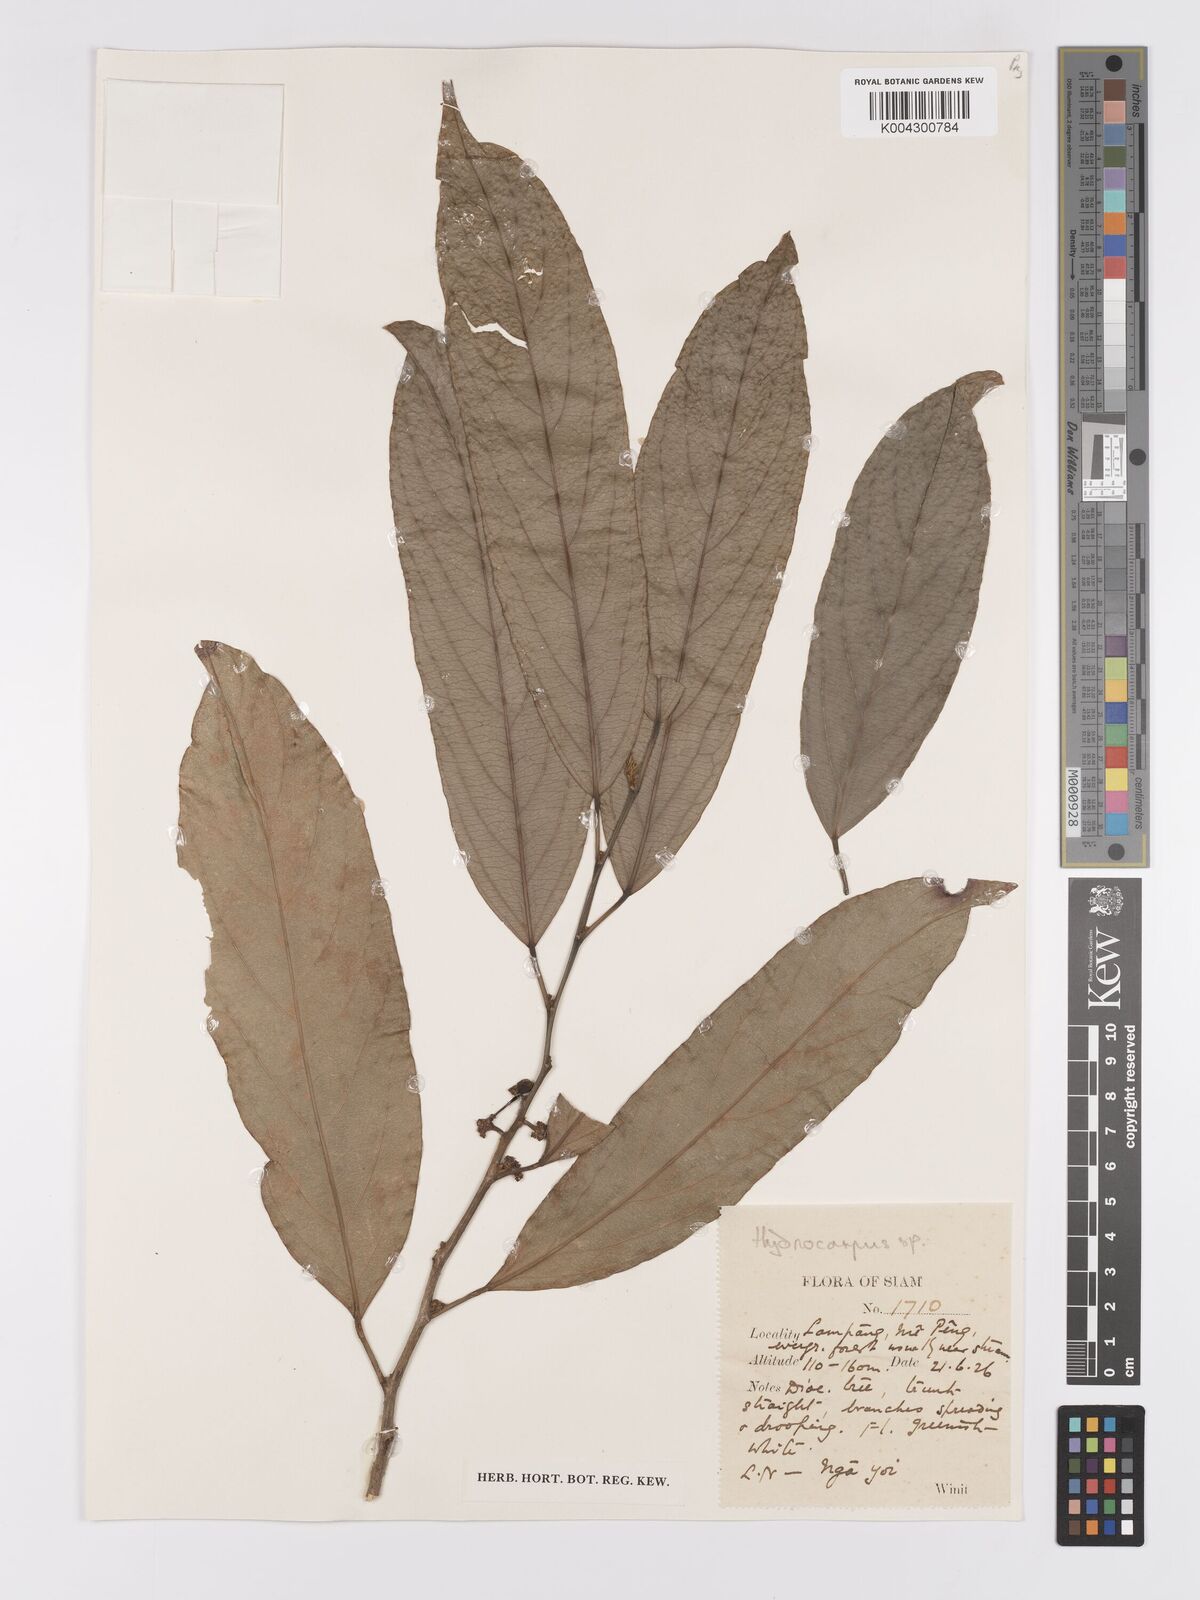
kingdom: Plantae
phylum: Tracheophyta
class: Magnoliopsida
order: Malpighiales
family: Achariaceae
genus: Hydnocarpus
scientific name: Hydnocarpus
